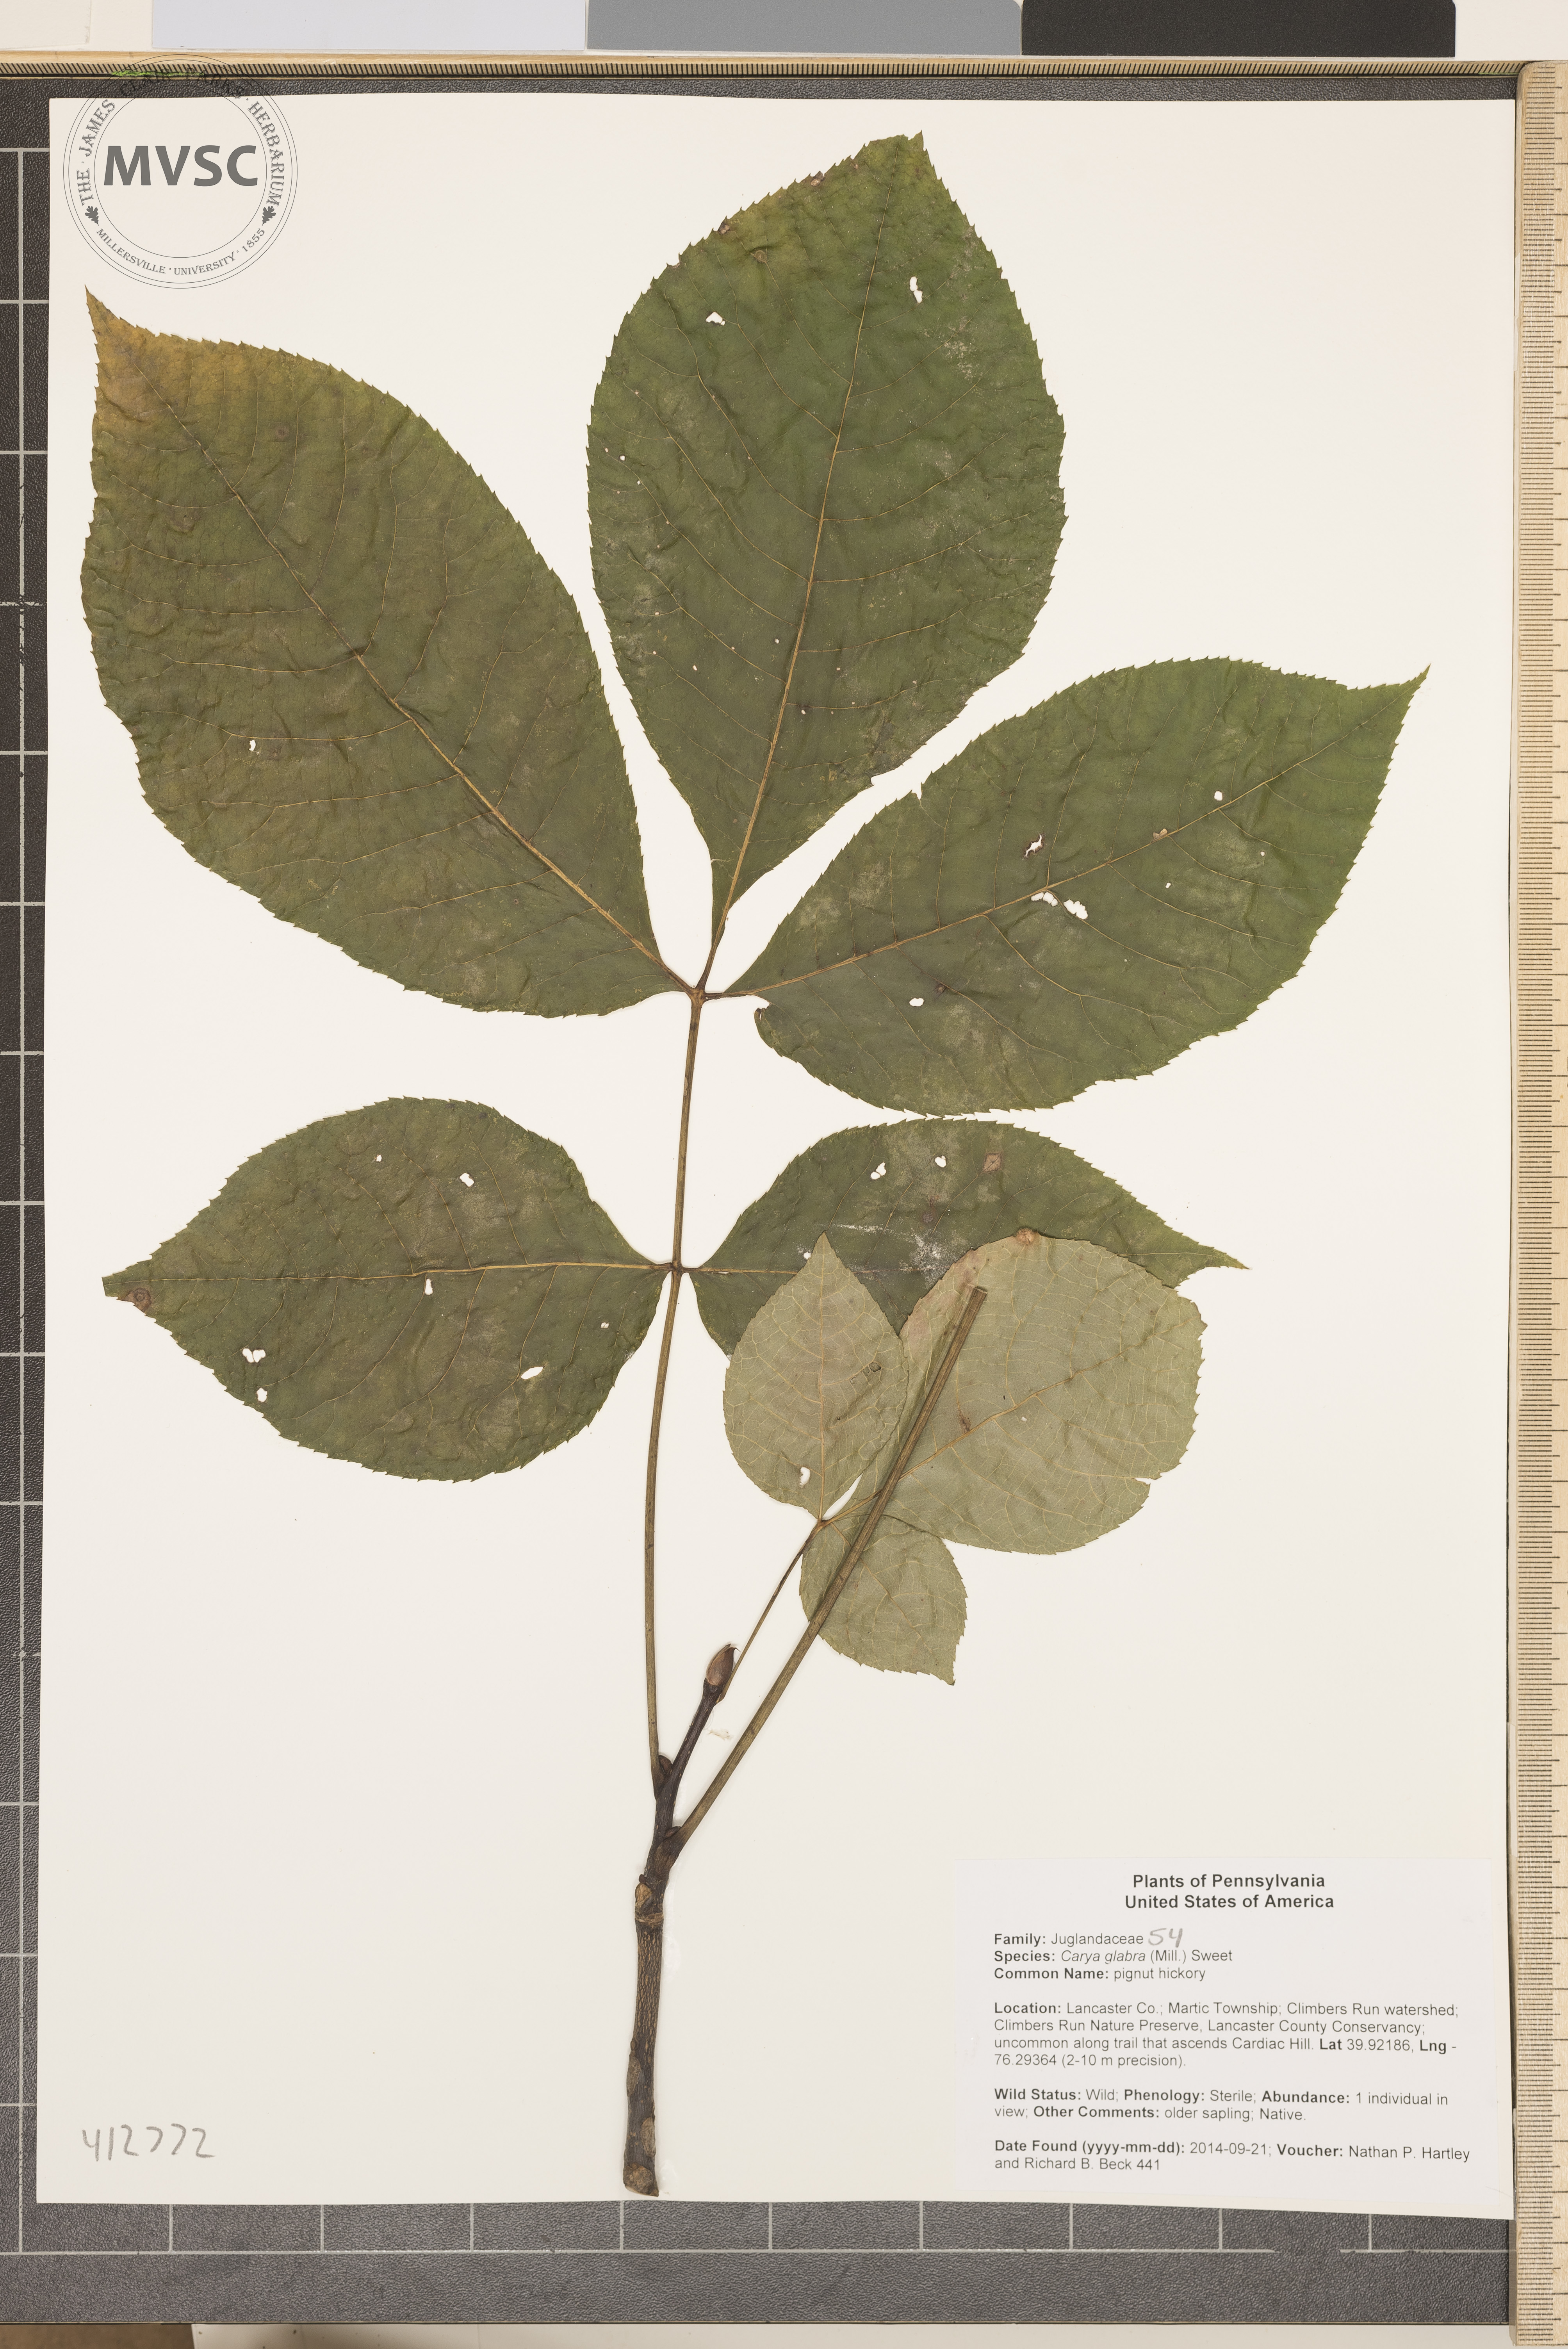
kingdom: Plantae
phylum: Tracheophyta
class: Magnoliopsida
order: Fagales
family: Juglandaceae
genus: Carya
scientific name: Carya glabra
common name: pignut hickory
